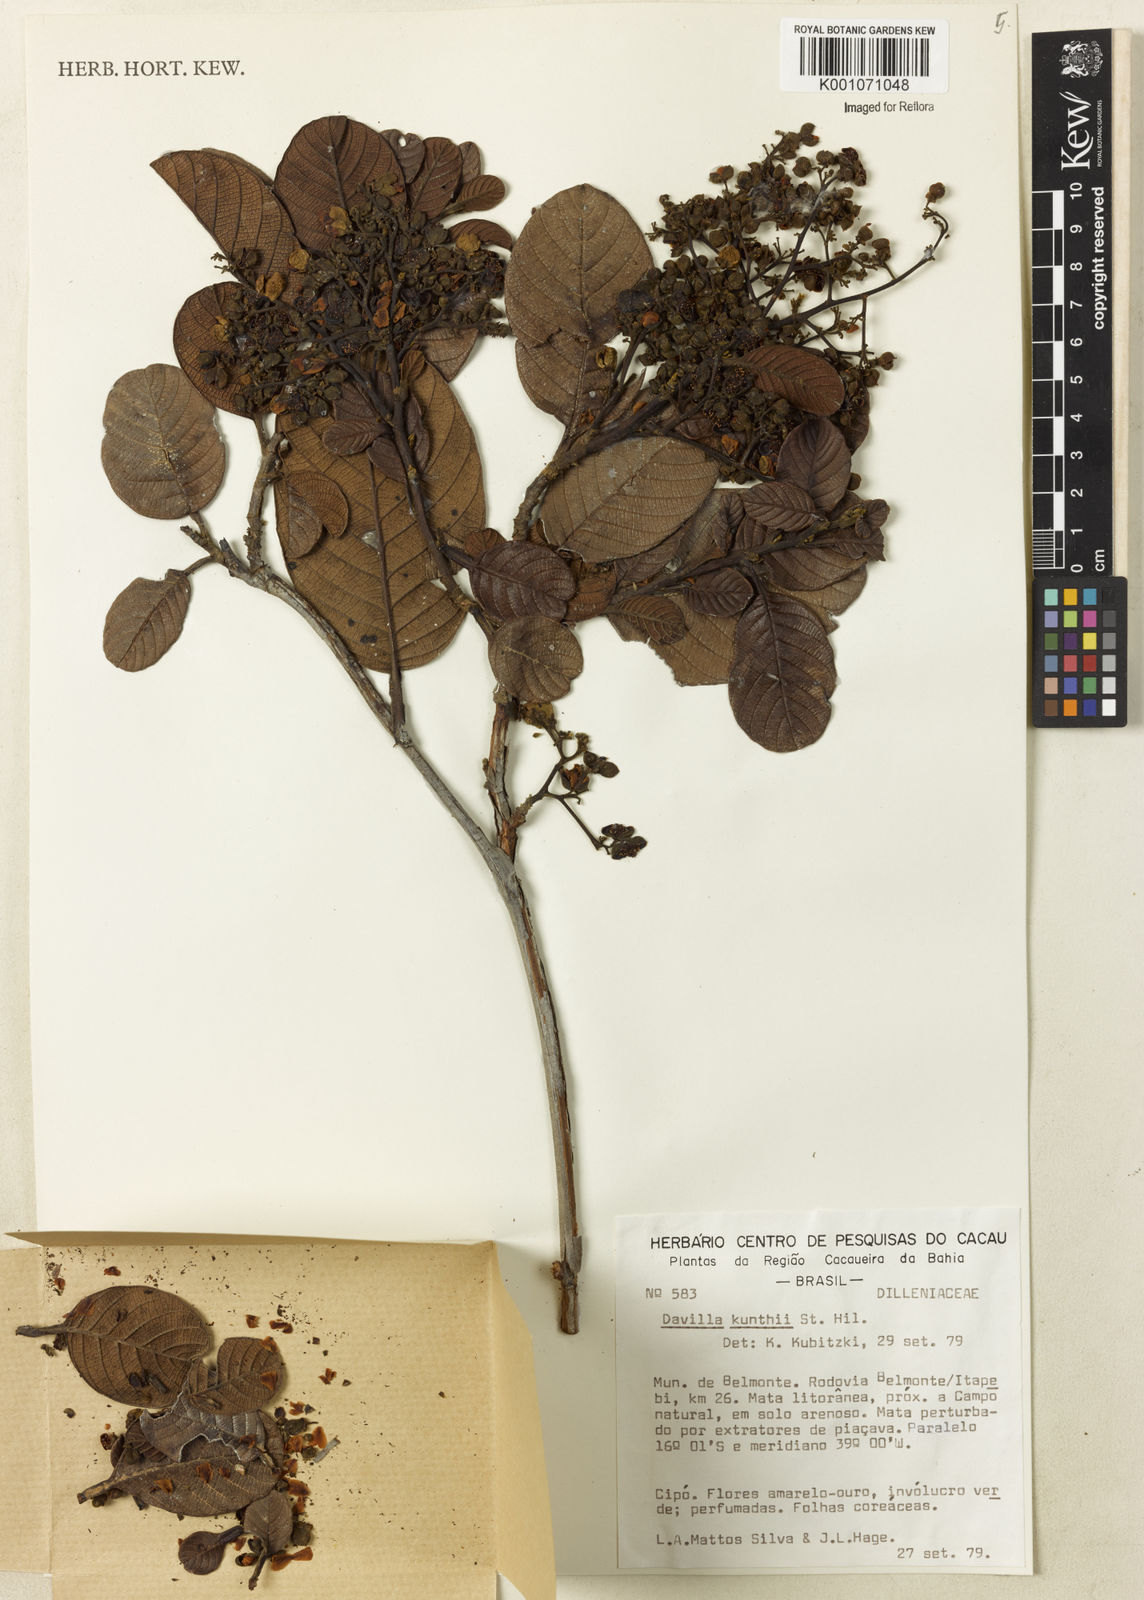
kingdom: Plantae
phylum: Tracheophyta
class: Magnoliopsida
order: Dilleniales
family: Dilleniaceae
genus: Davilla
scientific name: Davilla kunthii
